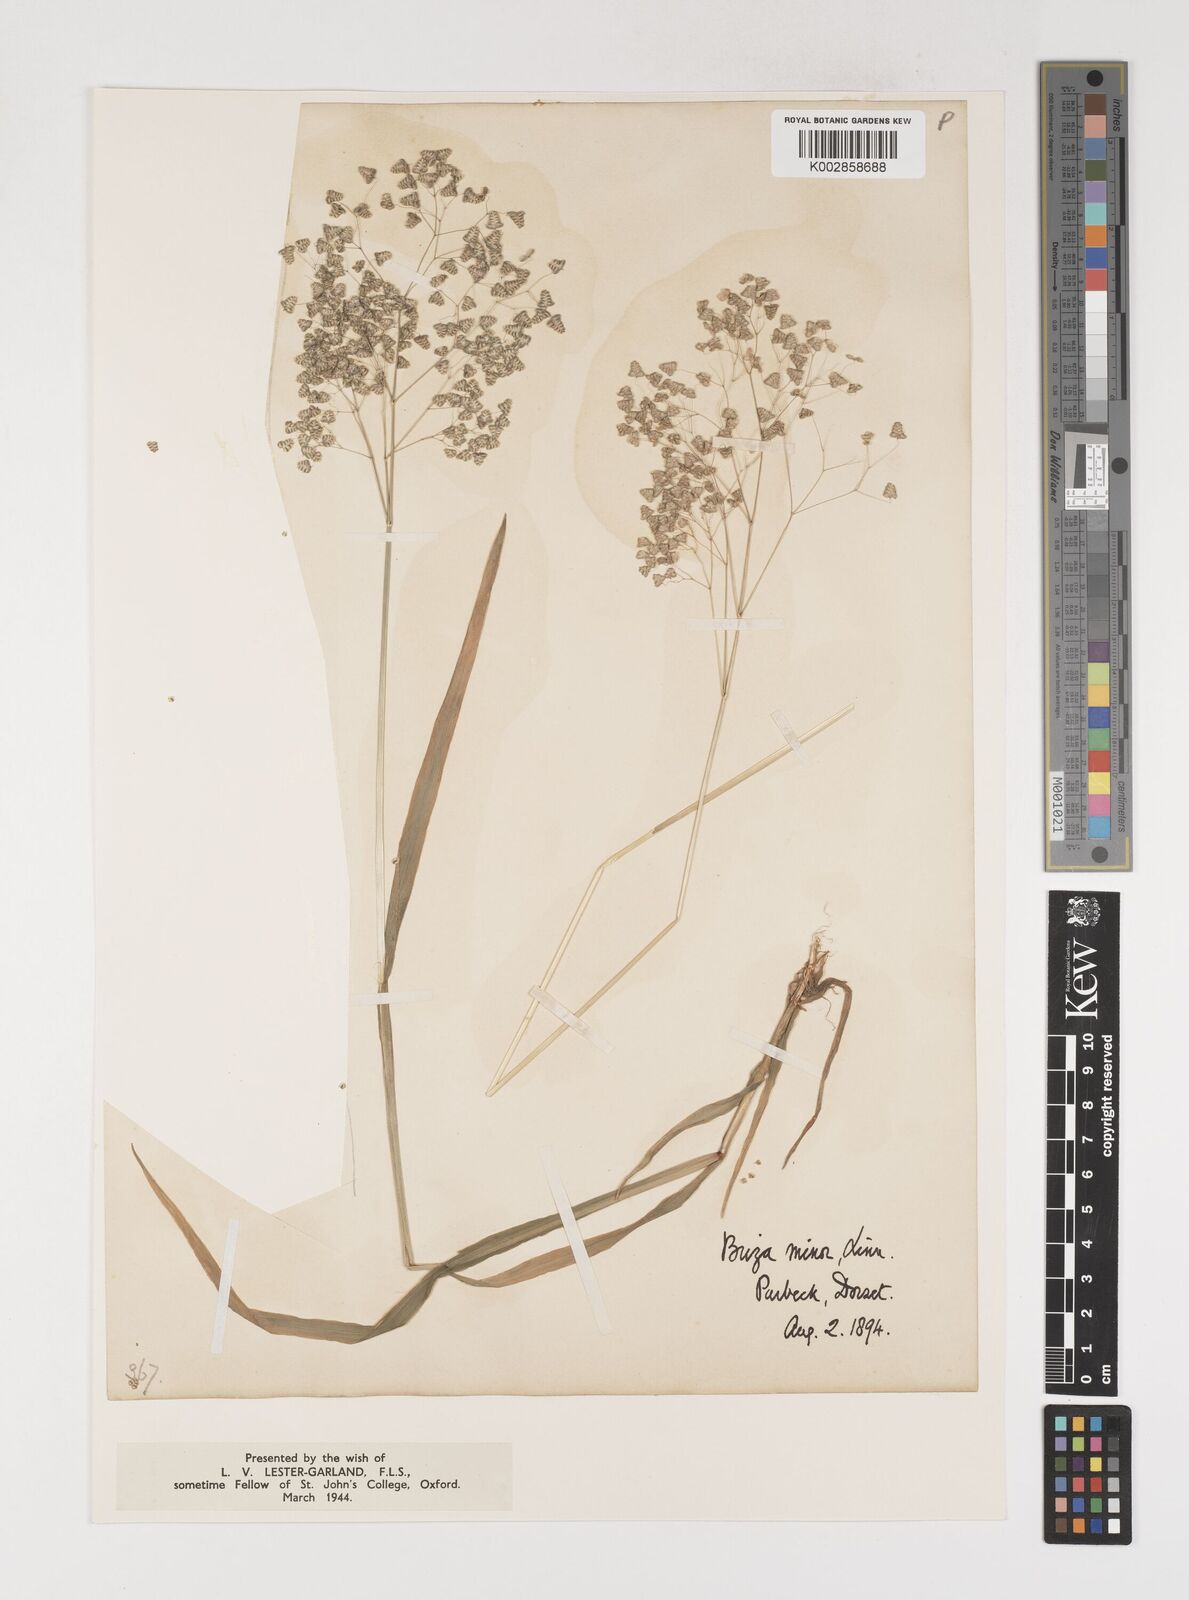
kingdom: Plantae
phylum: Tracheophyta
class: Liliopsida
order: Poales
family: Poaceae
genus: Briza
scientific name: Briza minor
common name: Lesser quaking-grass
